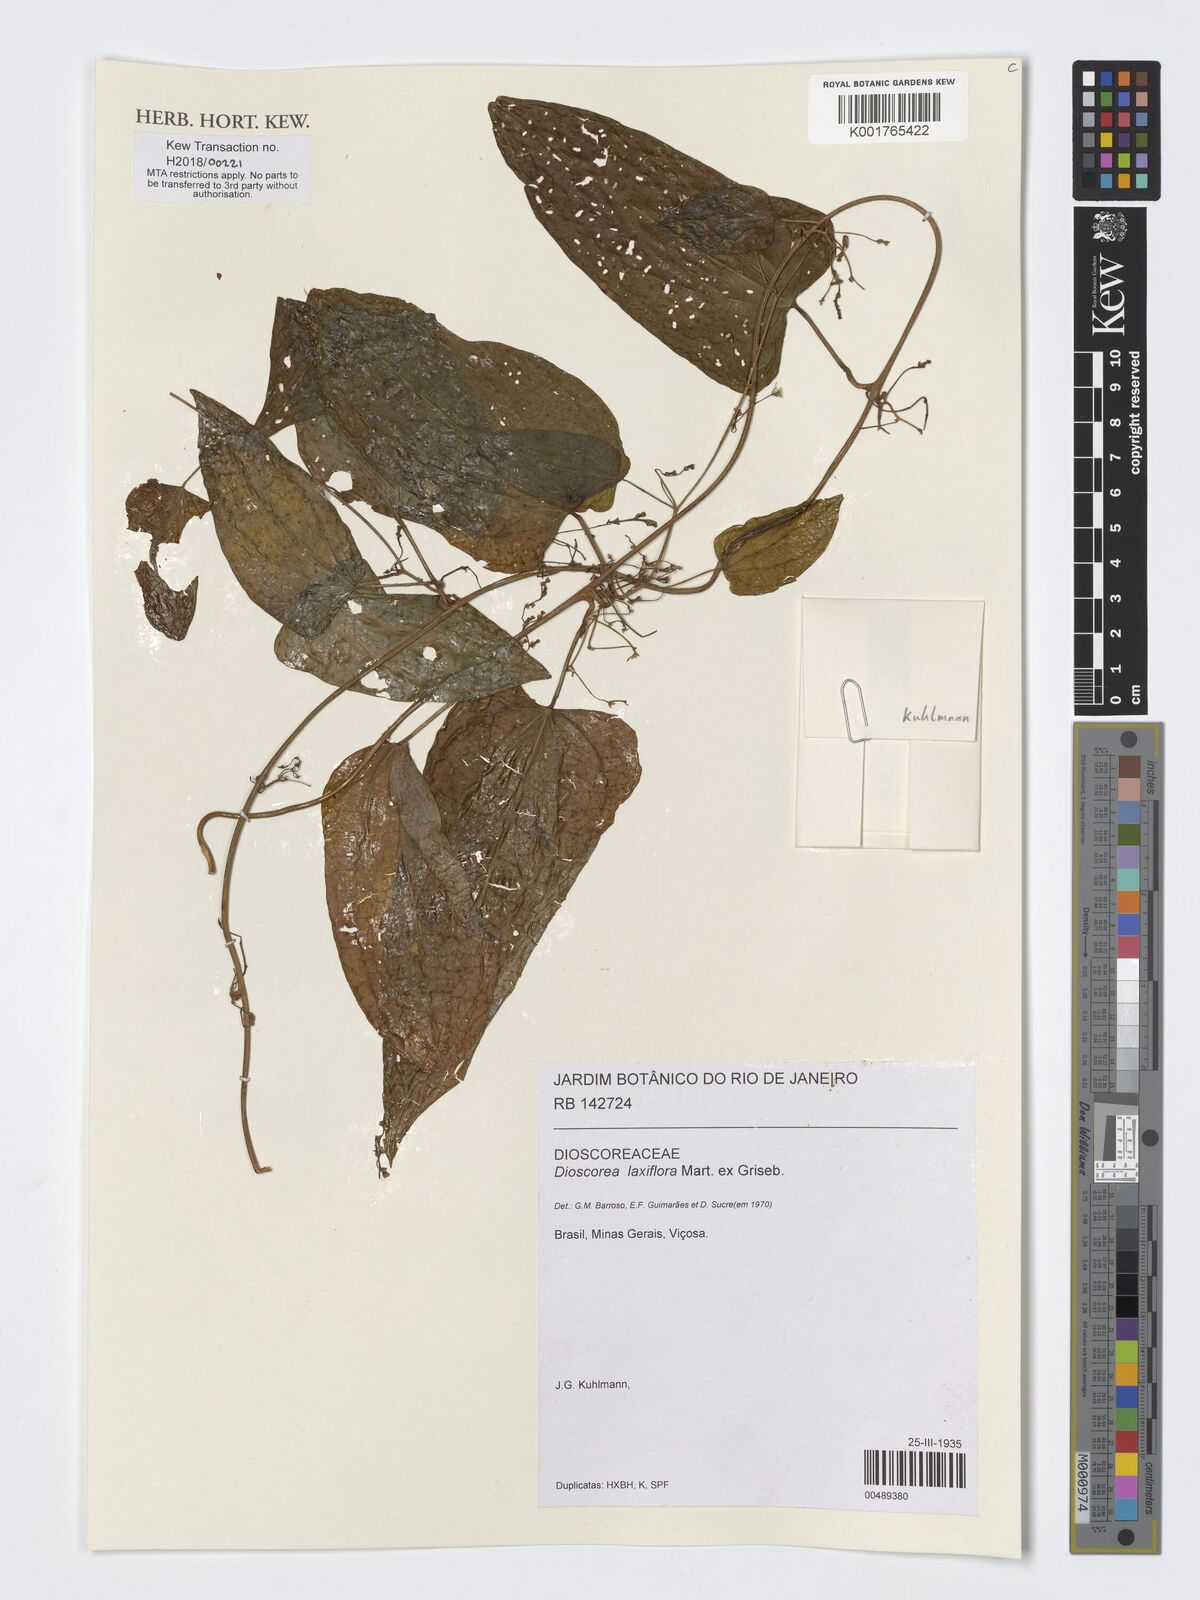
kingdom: Plantae
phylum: Tracheophyta
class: Liliopsida
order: Dioscoreales
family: Dioscoreaceae
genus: Dioscorea
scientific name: Dioscorea laxiflora
